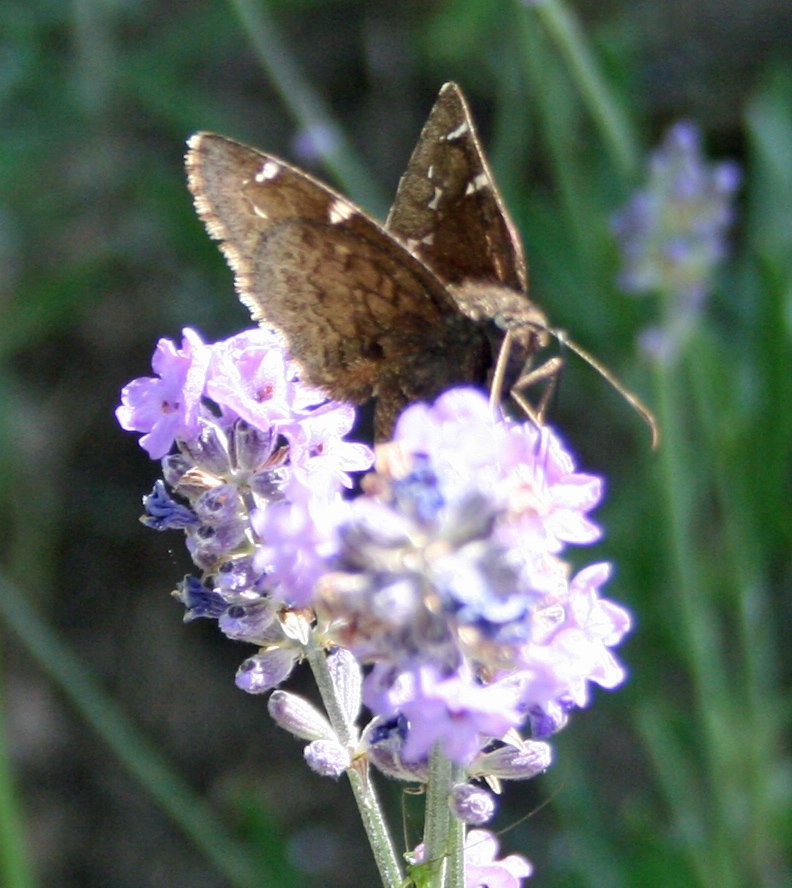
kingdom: Animalia
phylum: Arthropoda
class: Insecta
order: Lepidoptera
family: Hesperiidae
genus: Autochton
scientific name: Autochton
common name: Northern Cloudywing
